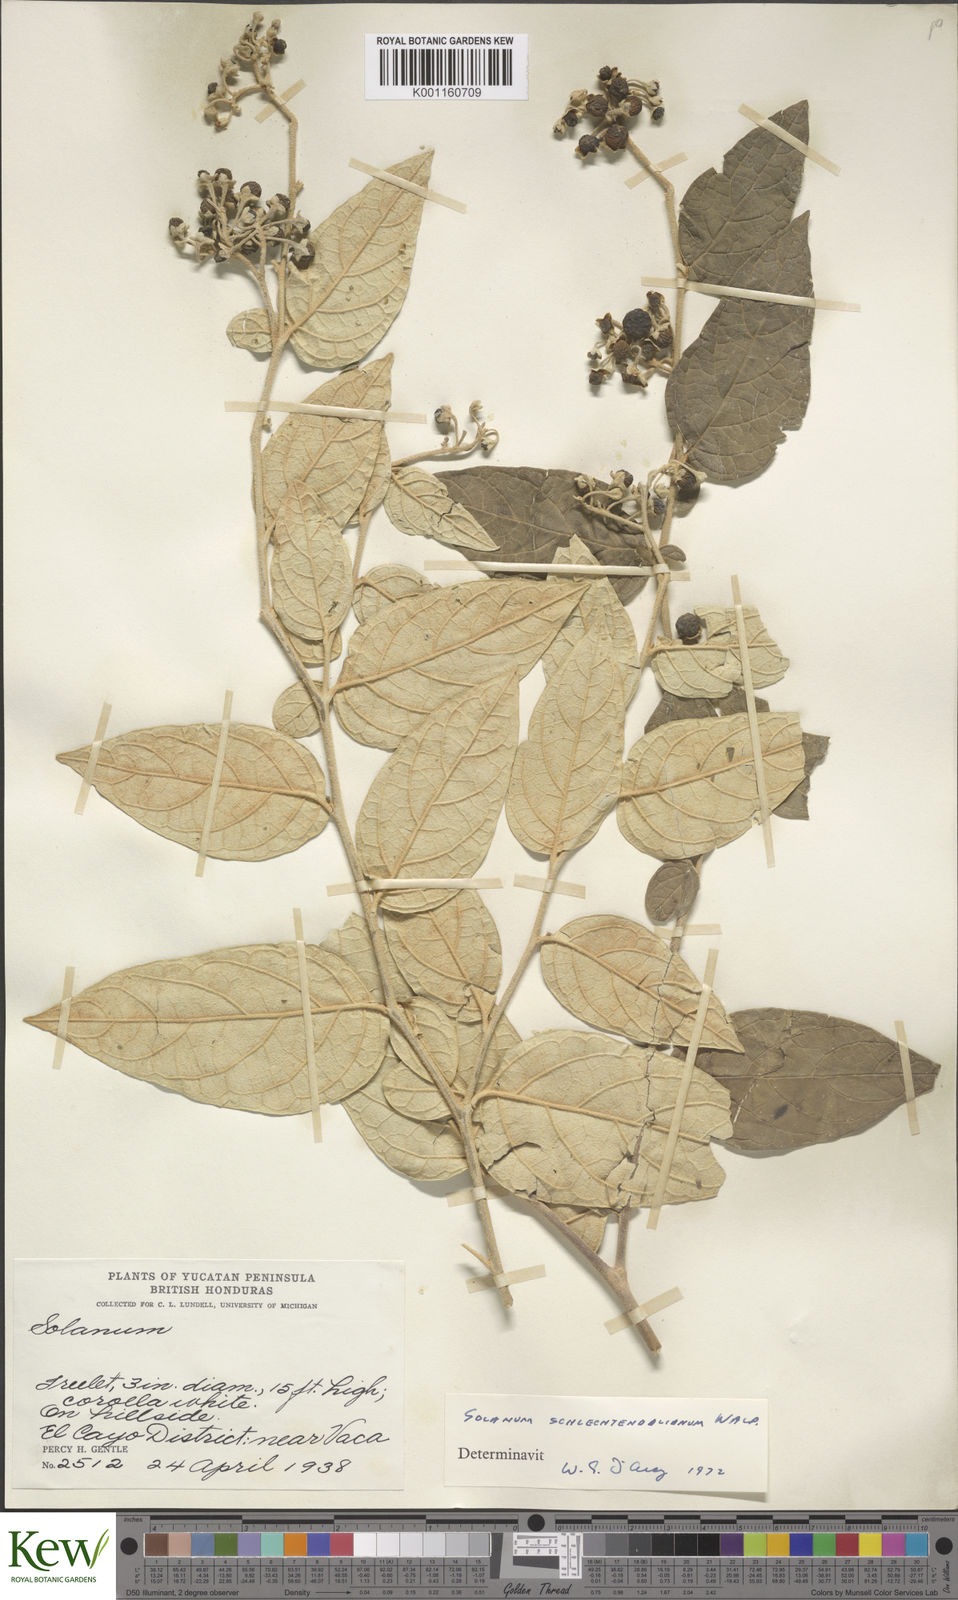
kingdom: Plantae
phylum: Tracheophyta
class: Magnoliopsida
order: Solanales
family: Solanaceae
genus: Solanum
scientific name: Solanum
